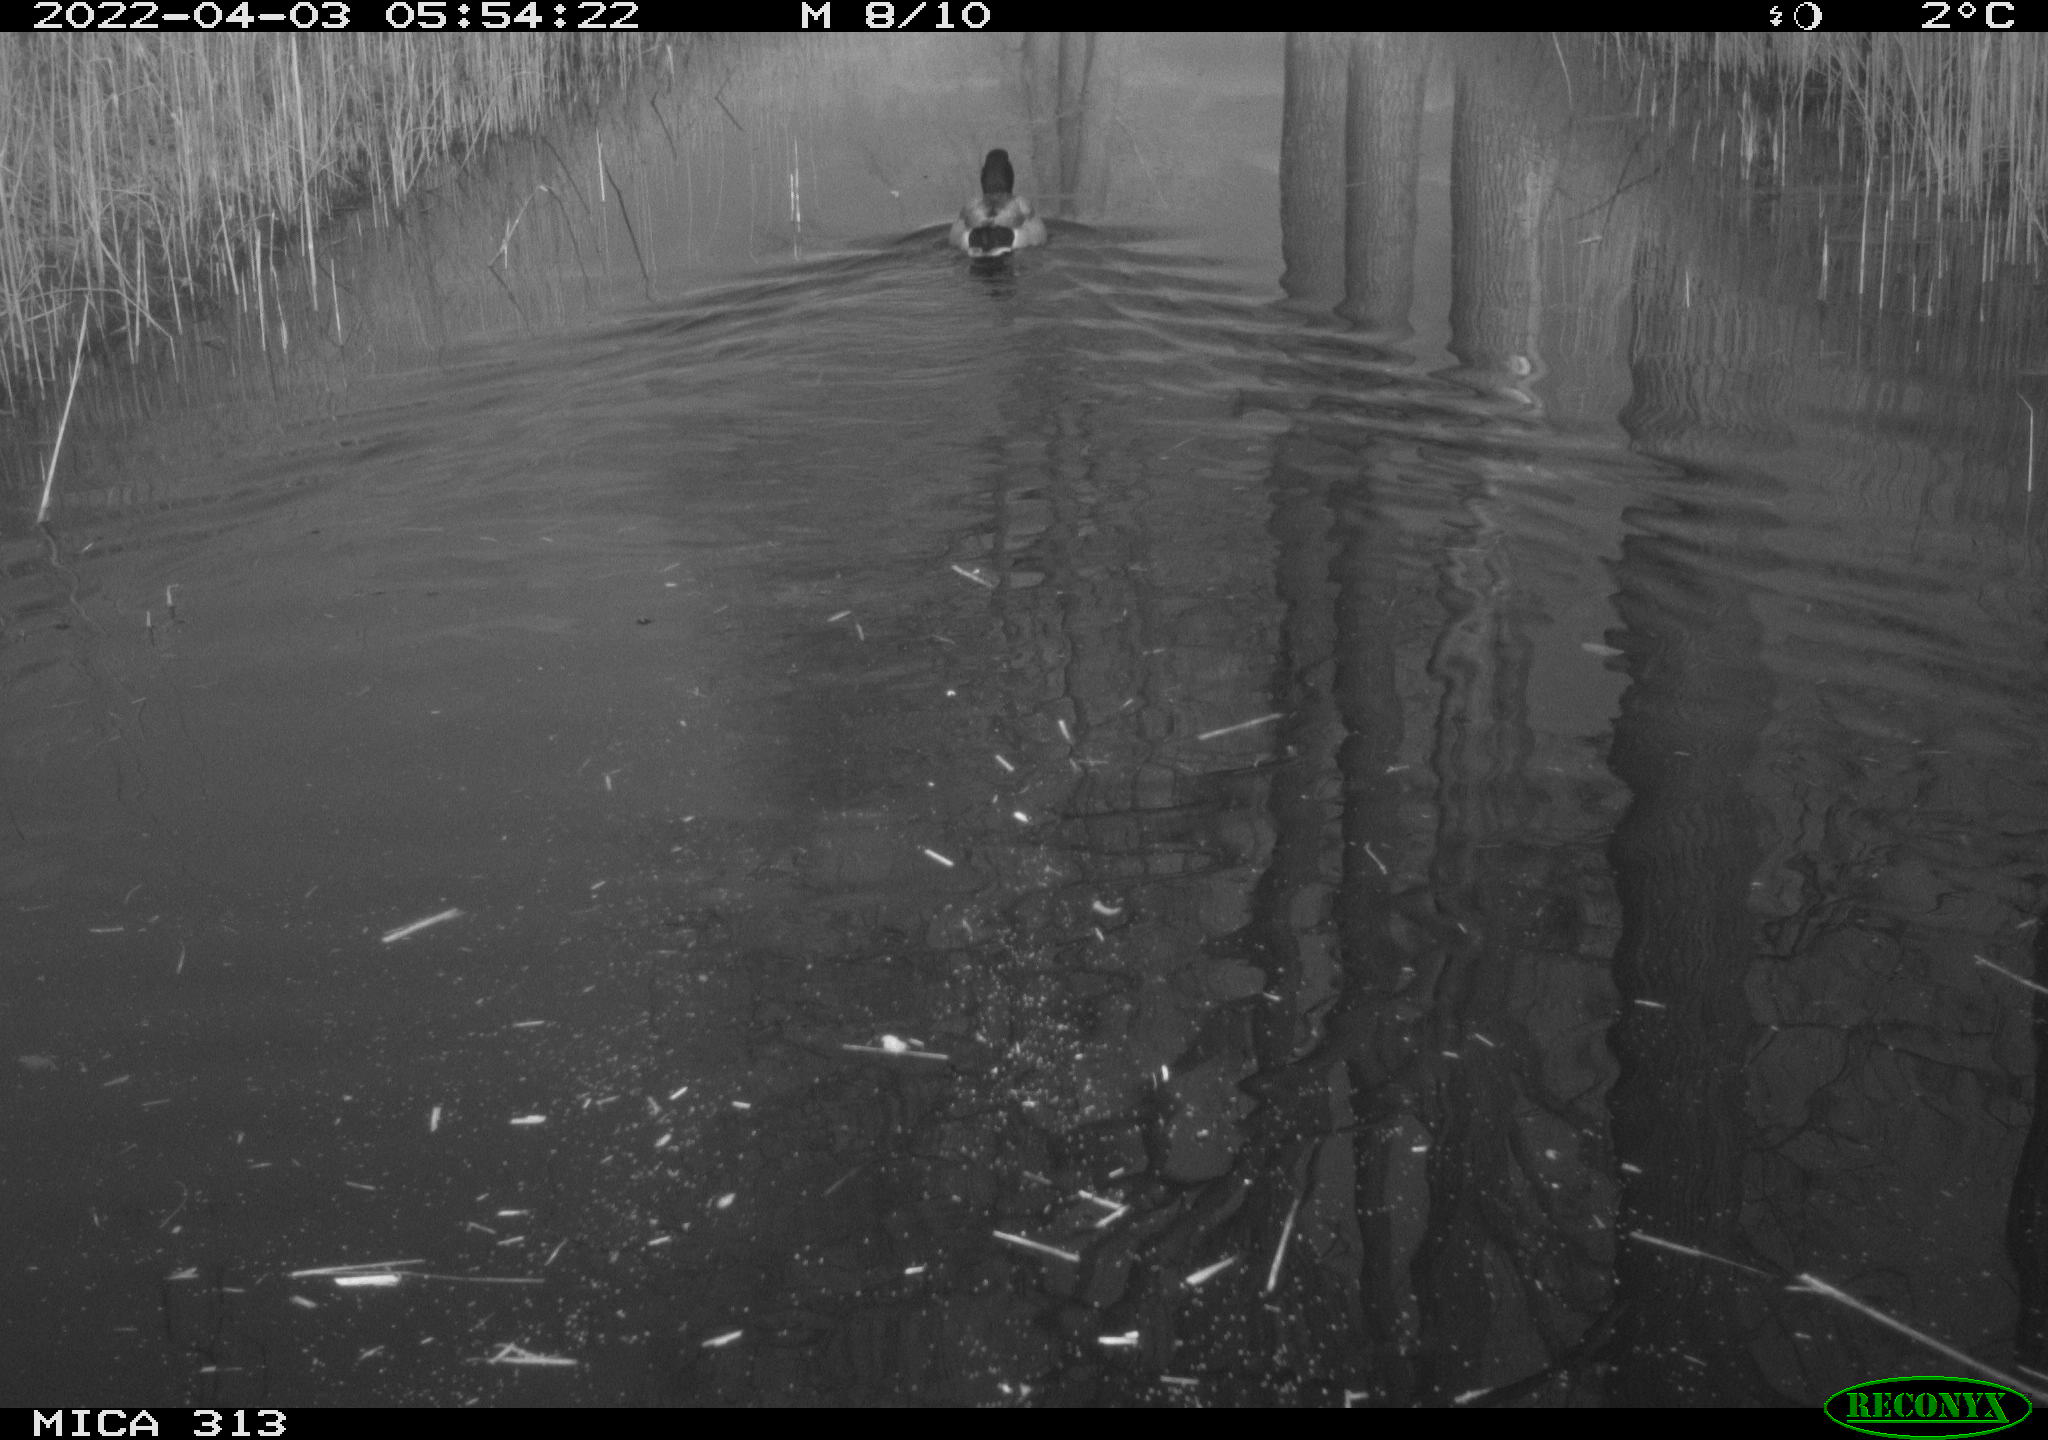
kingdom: Animalia
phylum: Chordata
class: Aves
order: Anseriformes
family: Anatidae
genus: Anas
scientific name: Anas platyrhynchos
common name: Mallard
